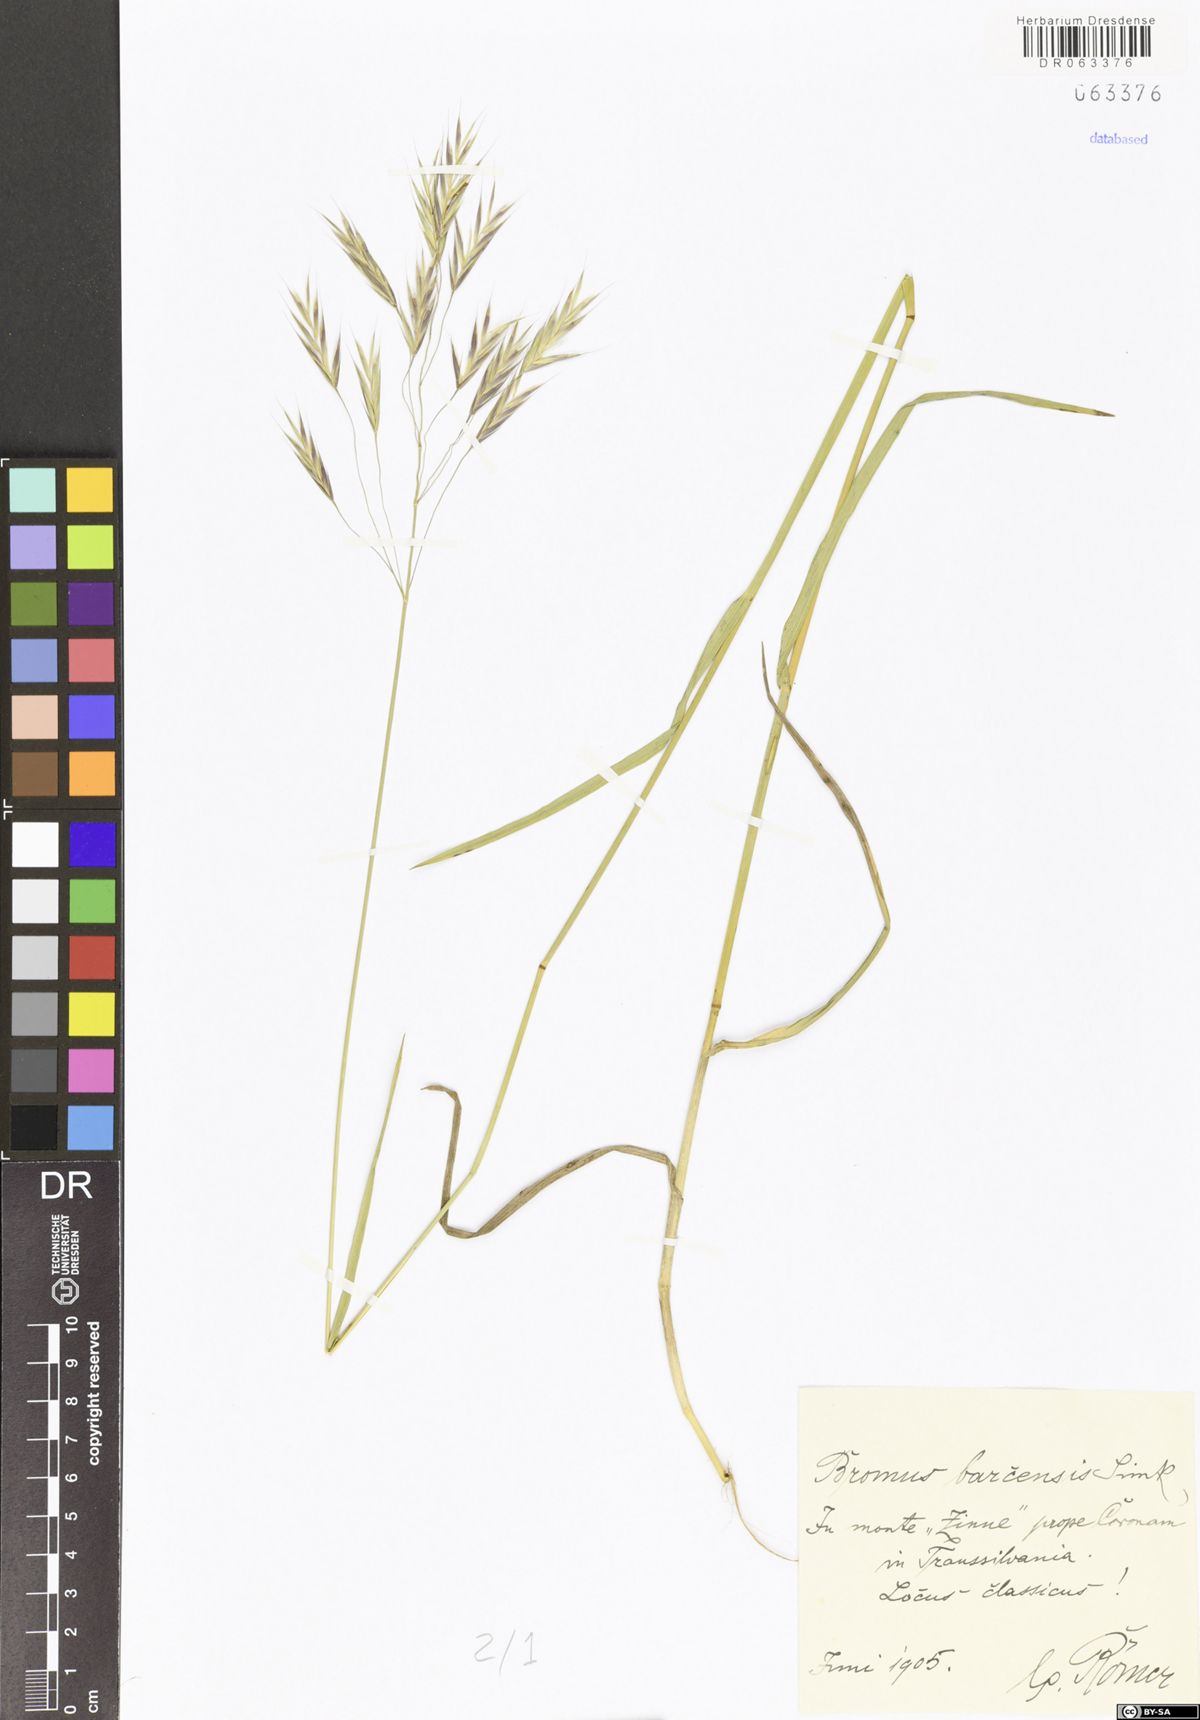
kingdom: Plantae
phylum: Tracheophyta
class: Liliopsida
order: Poales
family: Poaceae
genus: Bromus
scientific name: Bromus riparius
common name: Meadow brome
